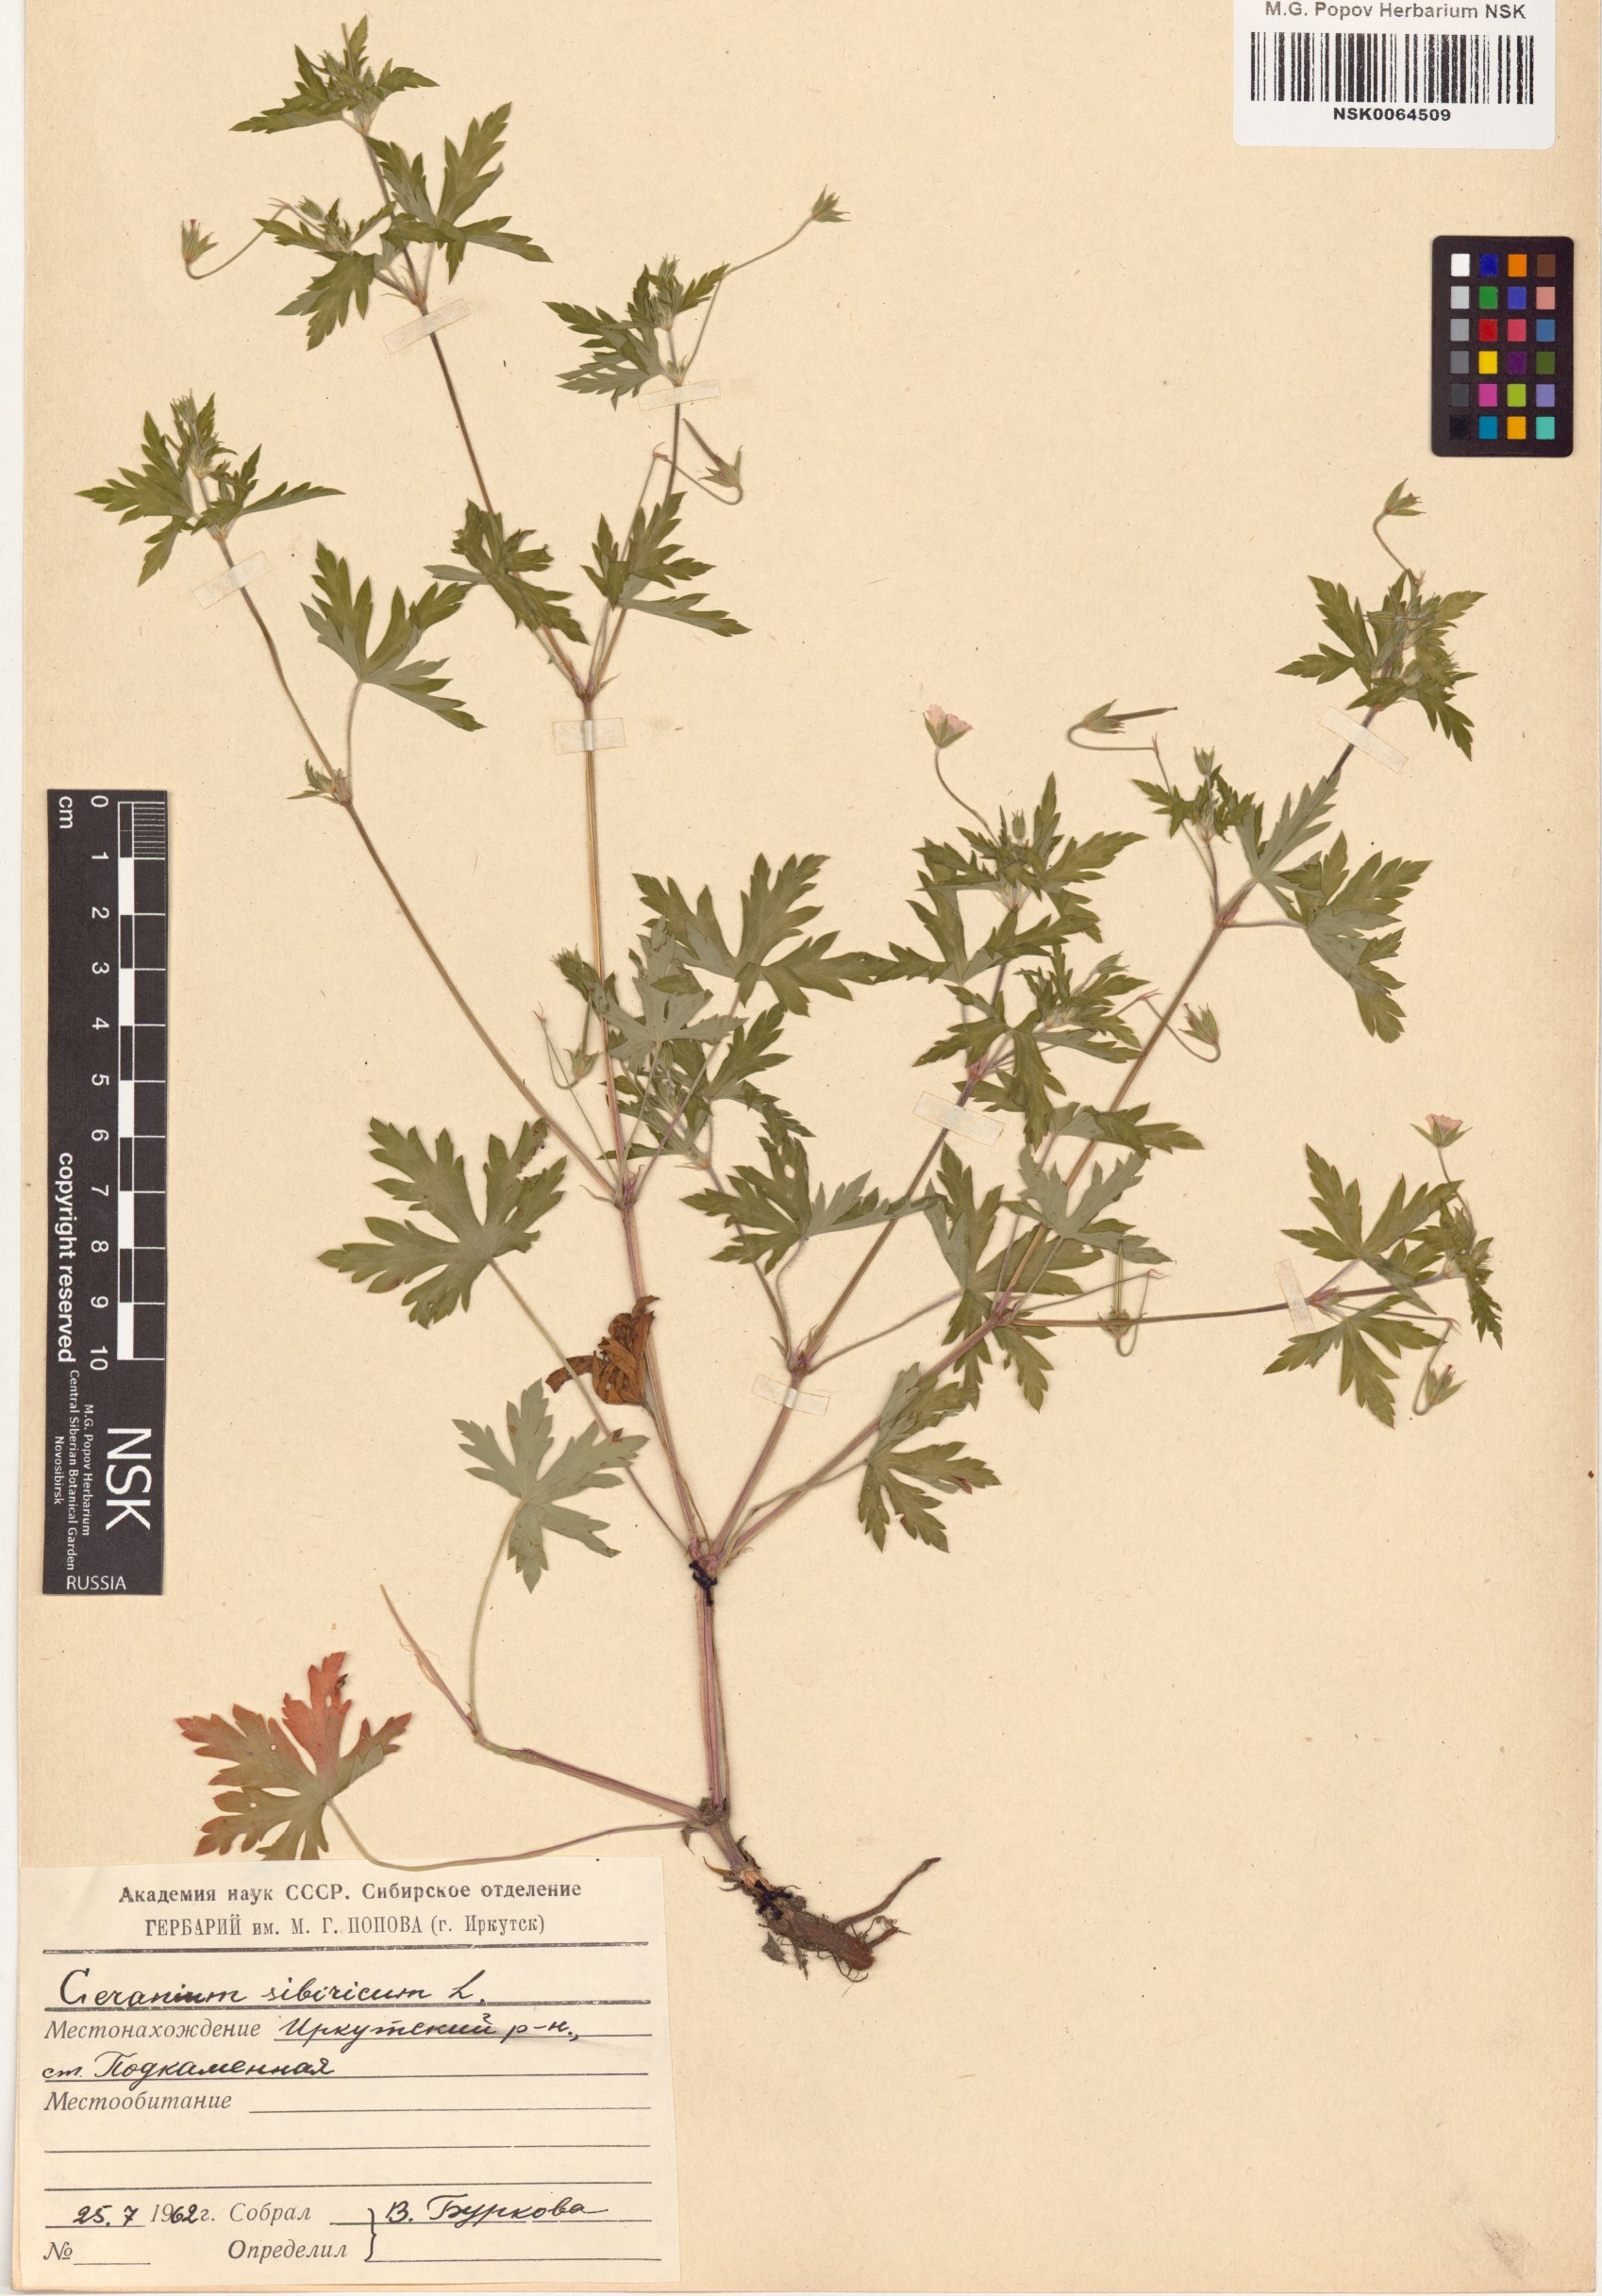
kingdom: Plantae
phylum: Tracheophyta
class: Magnoliopsida
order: Geraniales
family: Geraniaceae
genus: Geranium
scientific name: Geranium sibiricum
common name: Siberian crane's-bill
